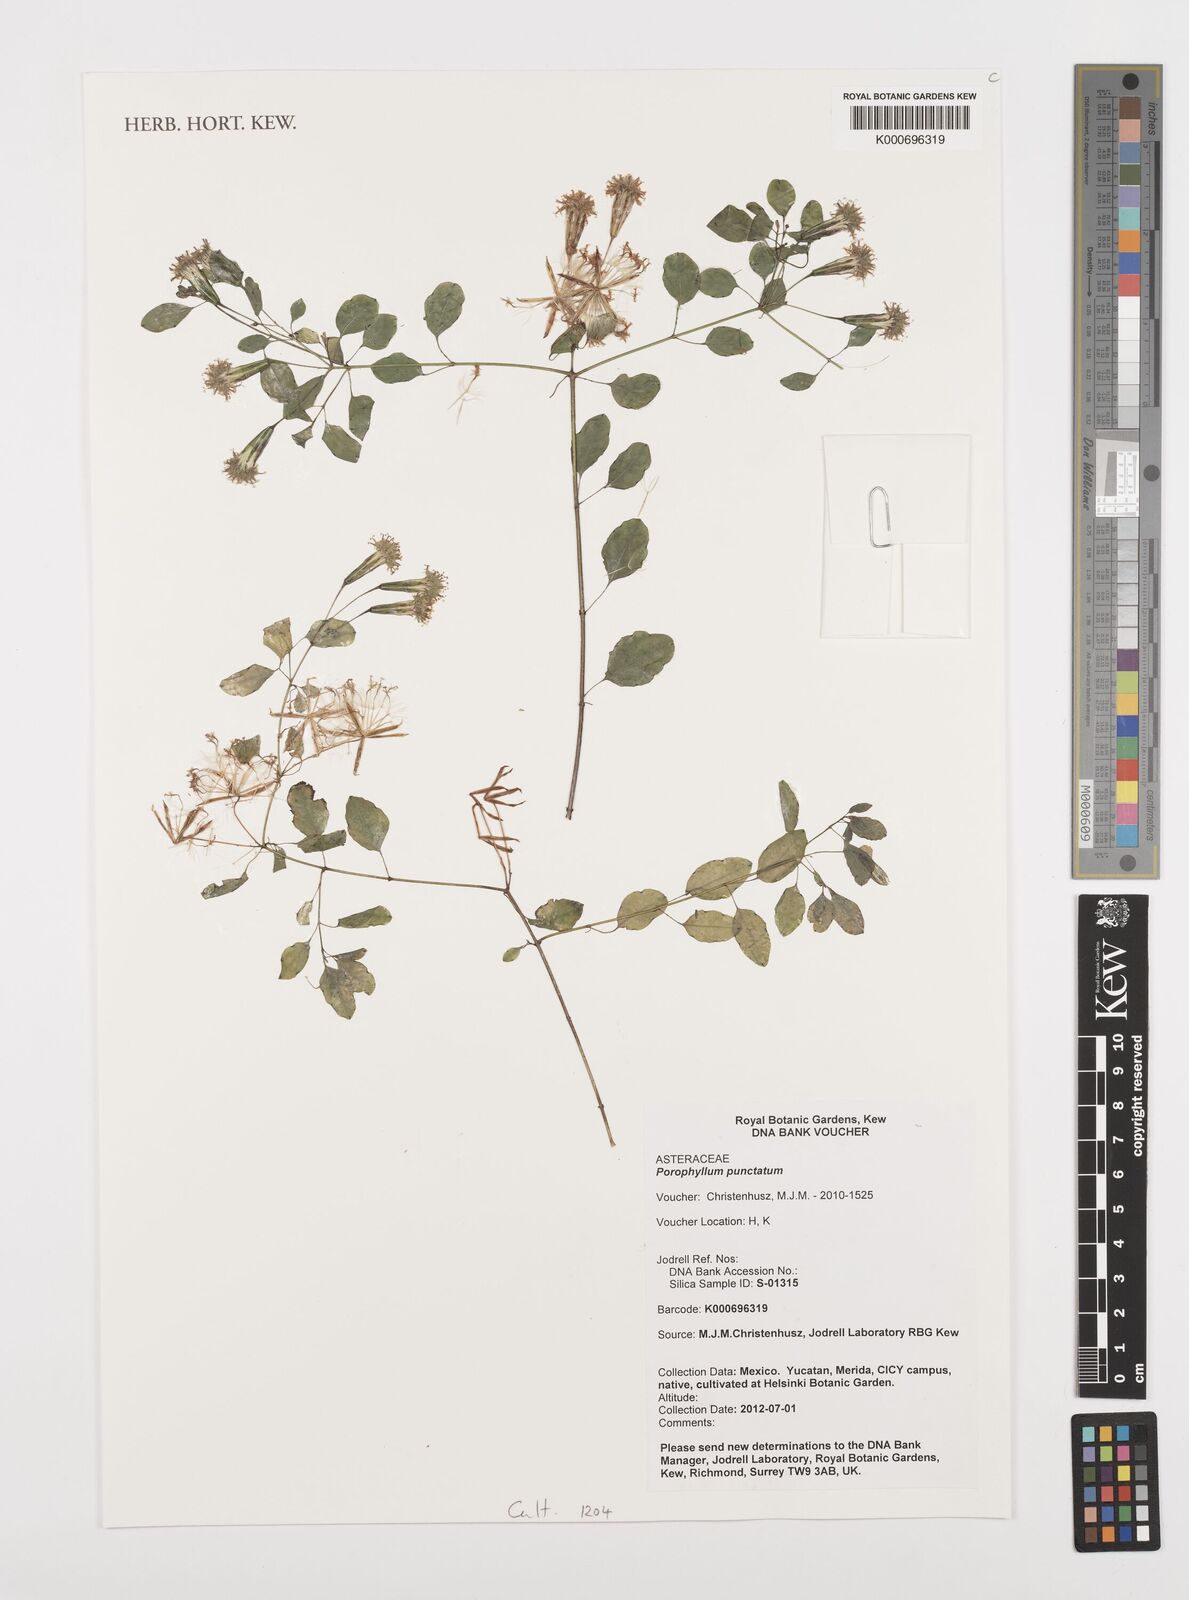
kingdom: Plantae
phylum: Tracheophyta
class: Magnoliopsida
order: Asterales
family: Asteraceae
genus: Porophyllum
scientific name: Porophyllum punctatum
